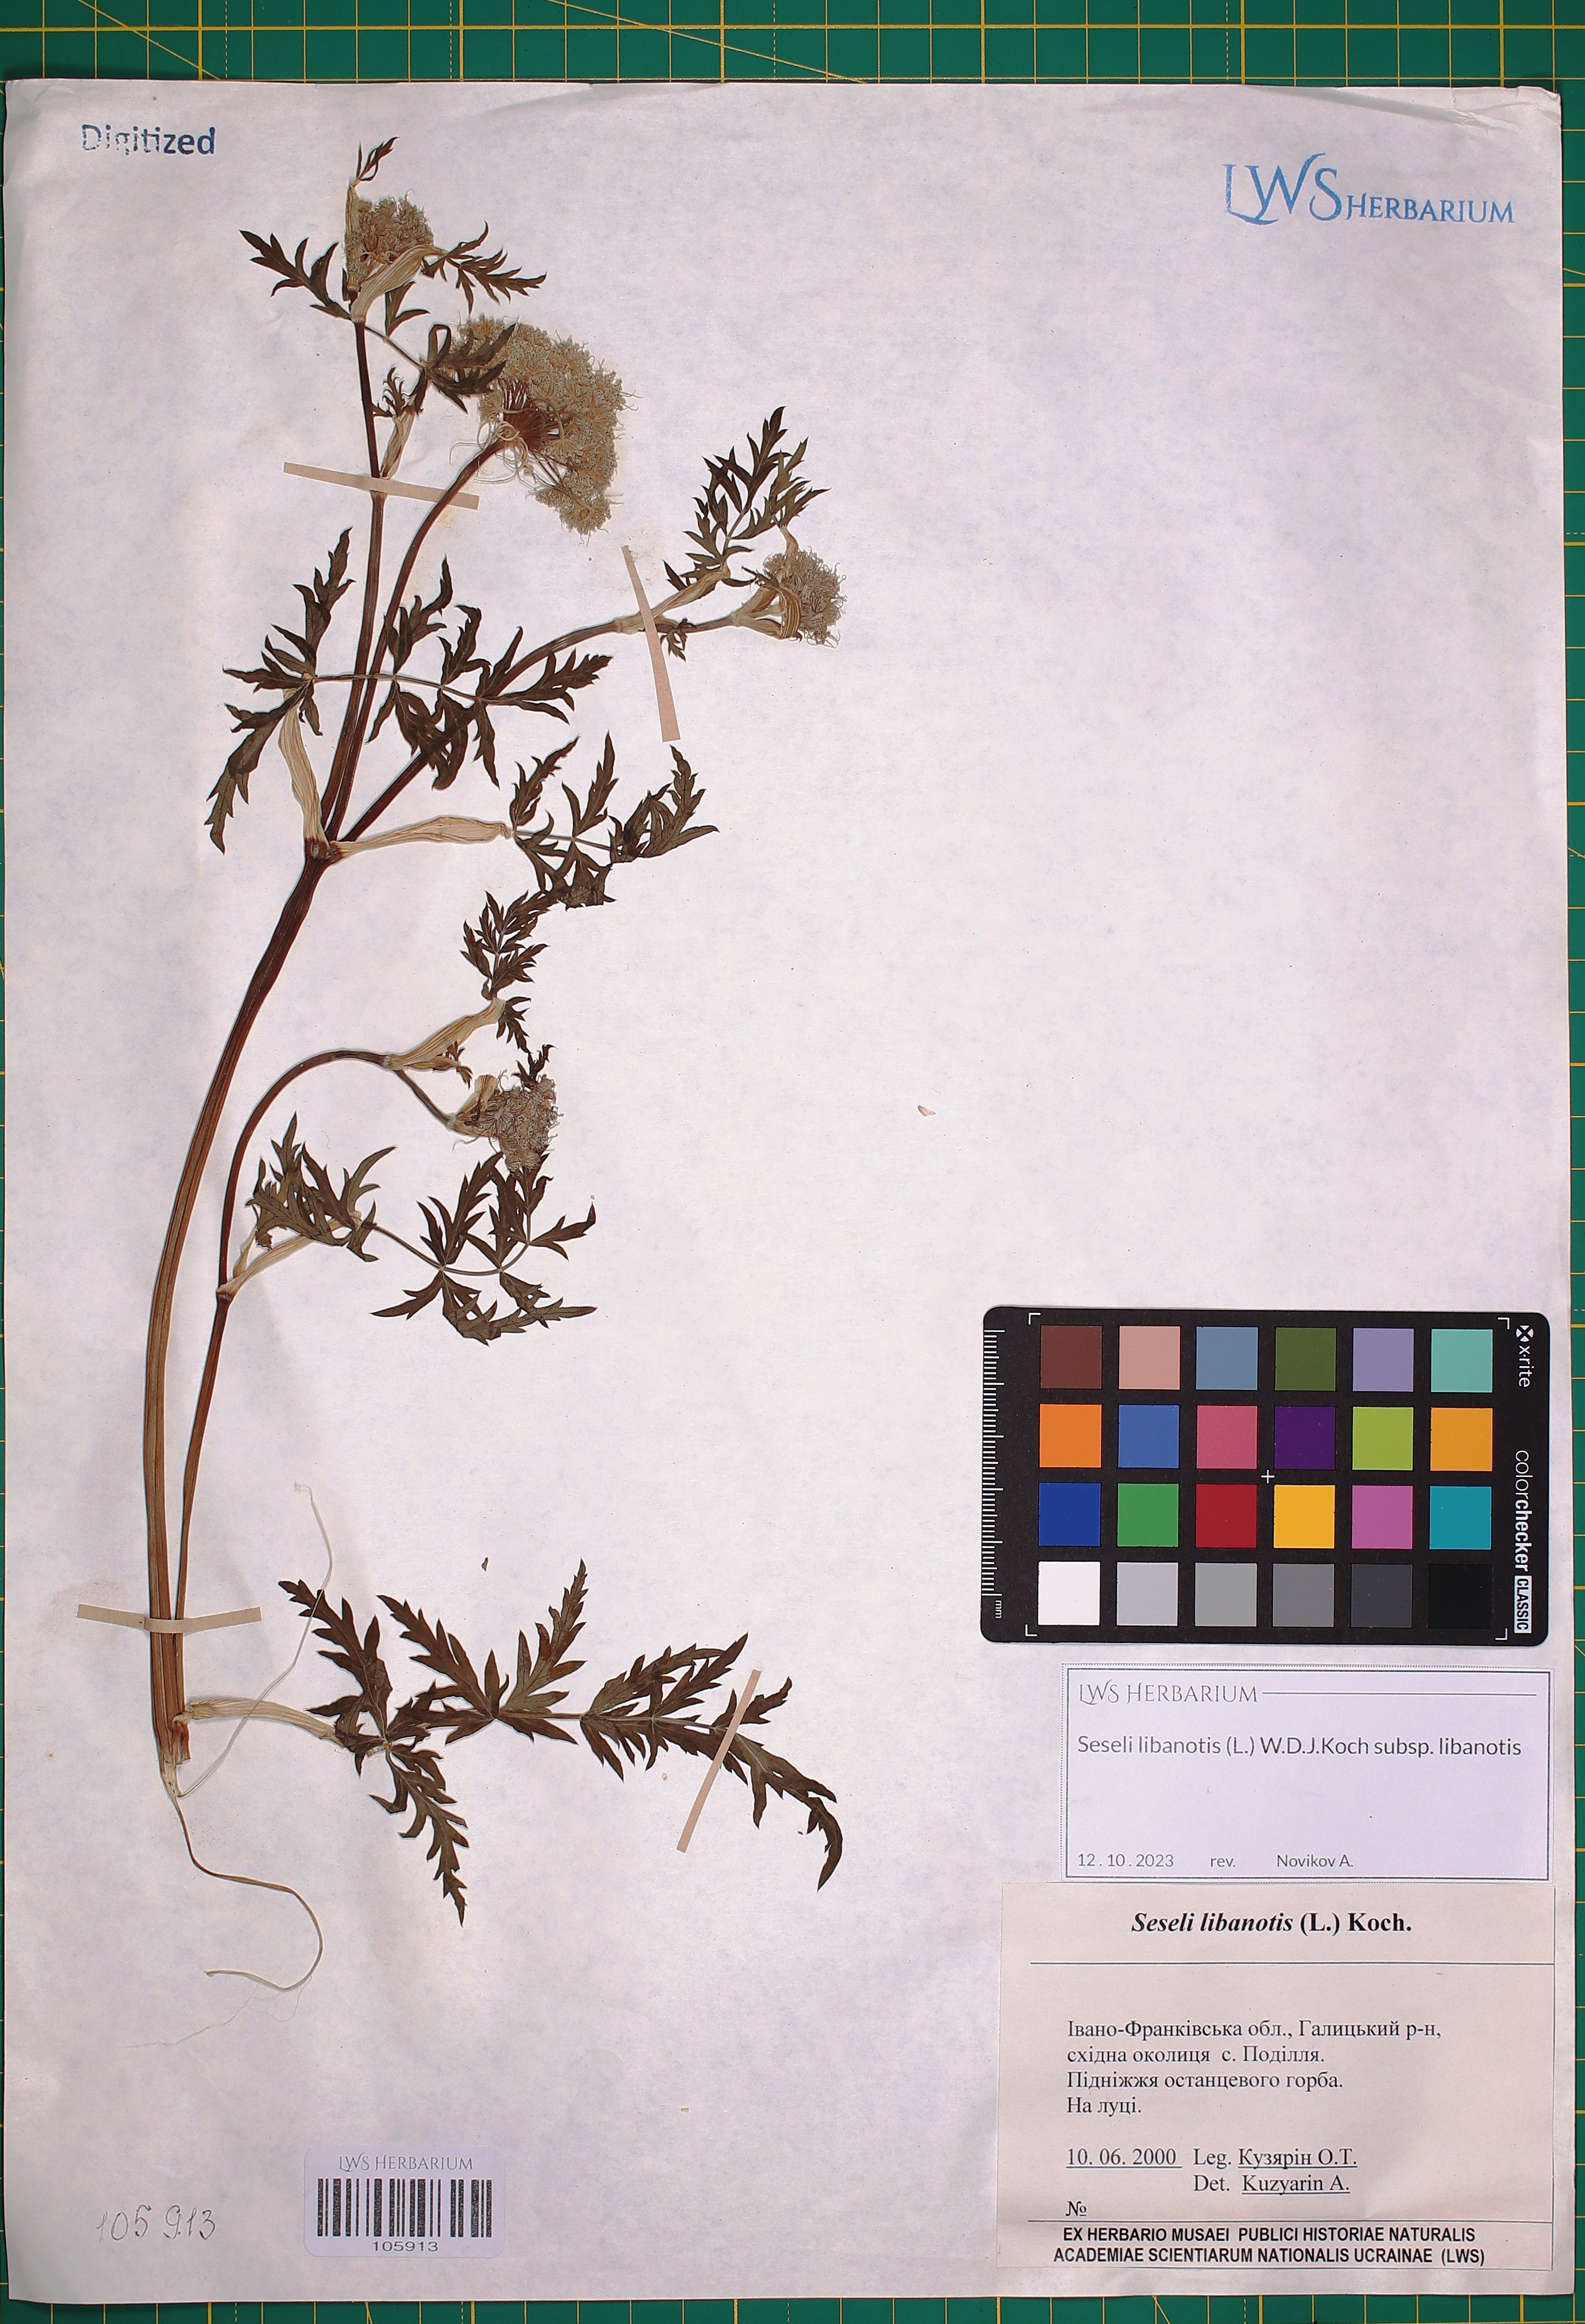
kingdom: Plantae
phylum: Tracheophyta
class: Magnoliopsida
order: Apiales
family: Apiaceae
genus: Seseli
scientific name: Seseli libanotis
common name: Mooncarrot
